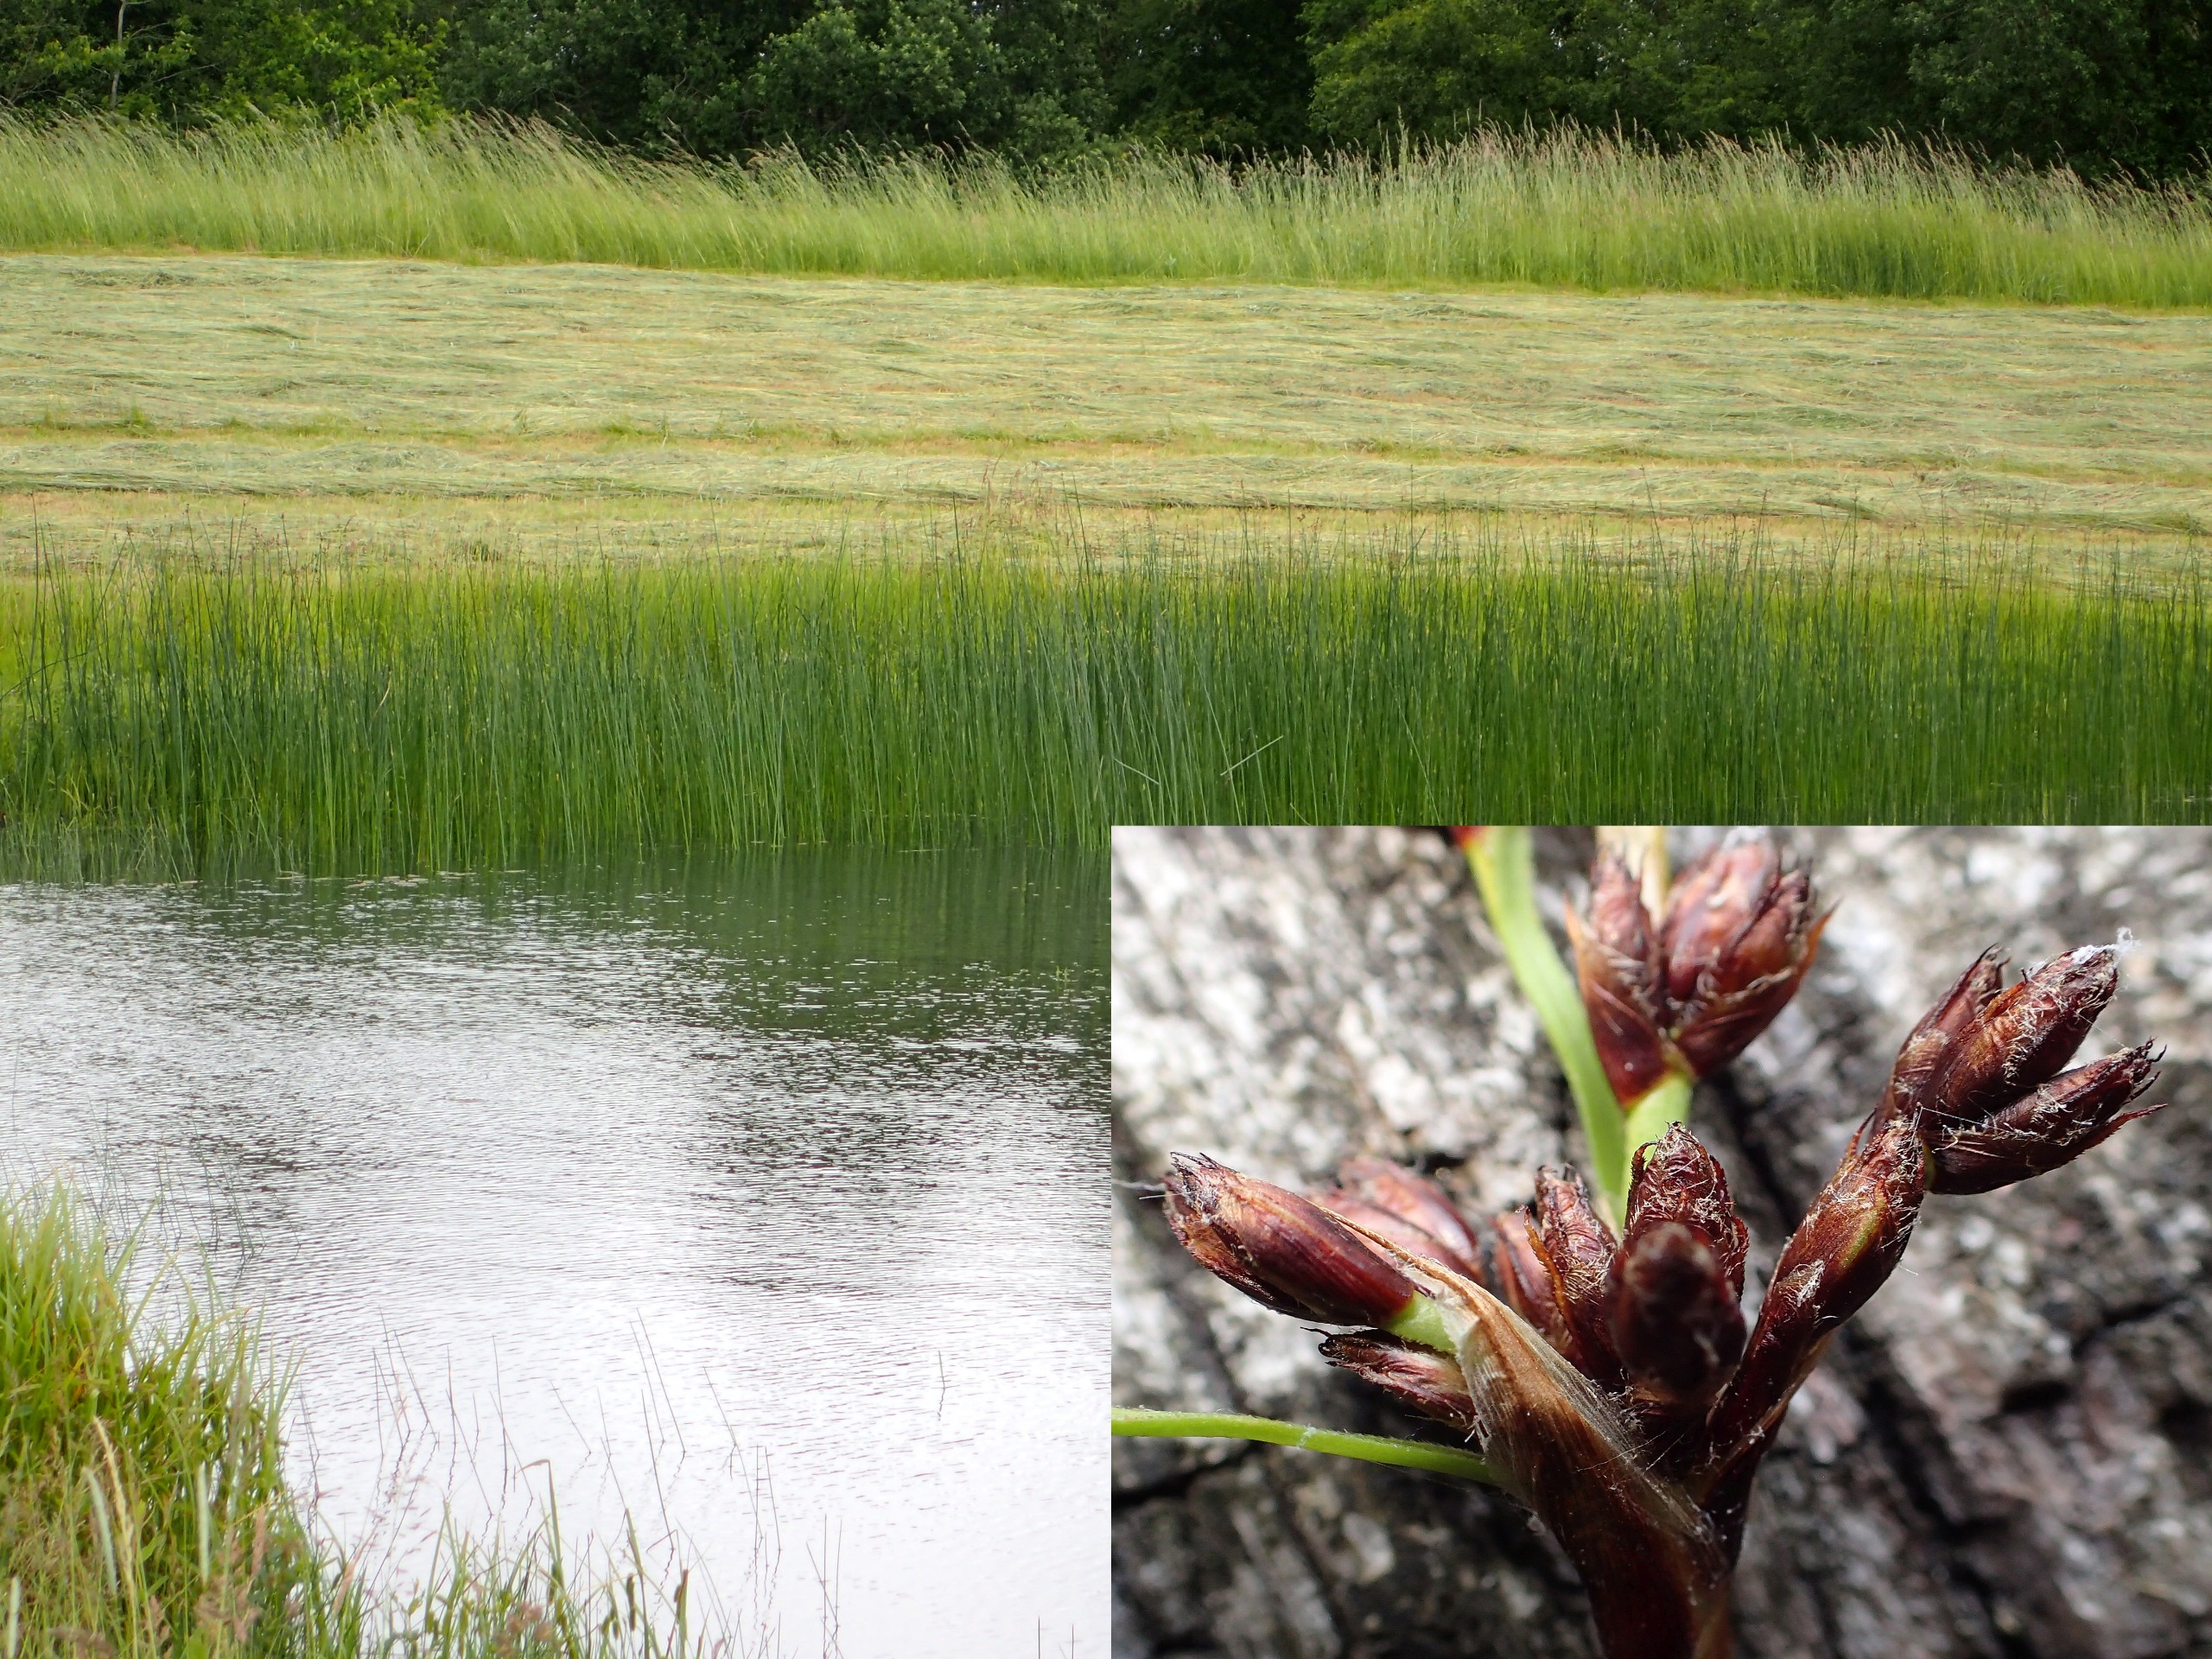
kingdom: Plantae
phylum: Tracheophyta
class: Liliopsida
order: Poales
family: Cyperaceae
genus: Schoenoplectus
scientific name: Schoenoplectus lacustris
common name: Sø-kogleaks
